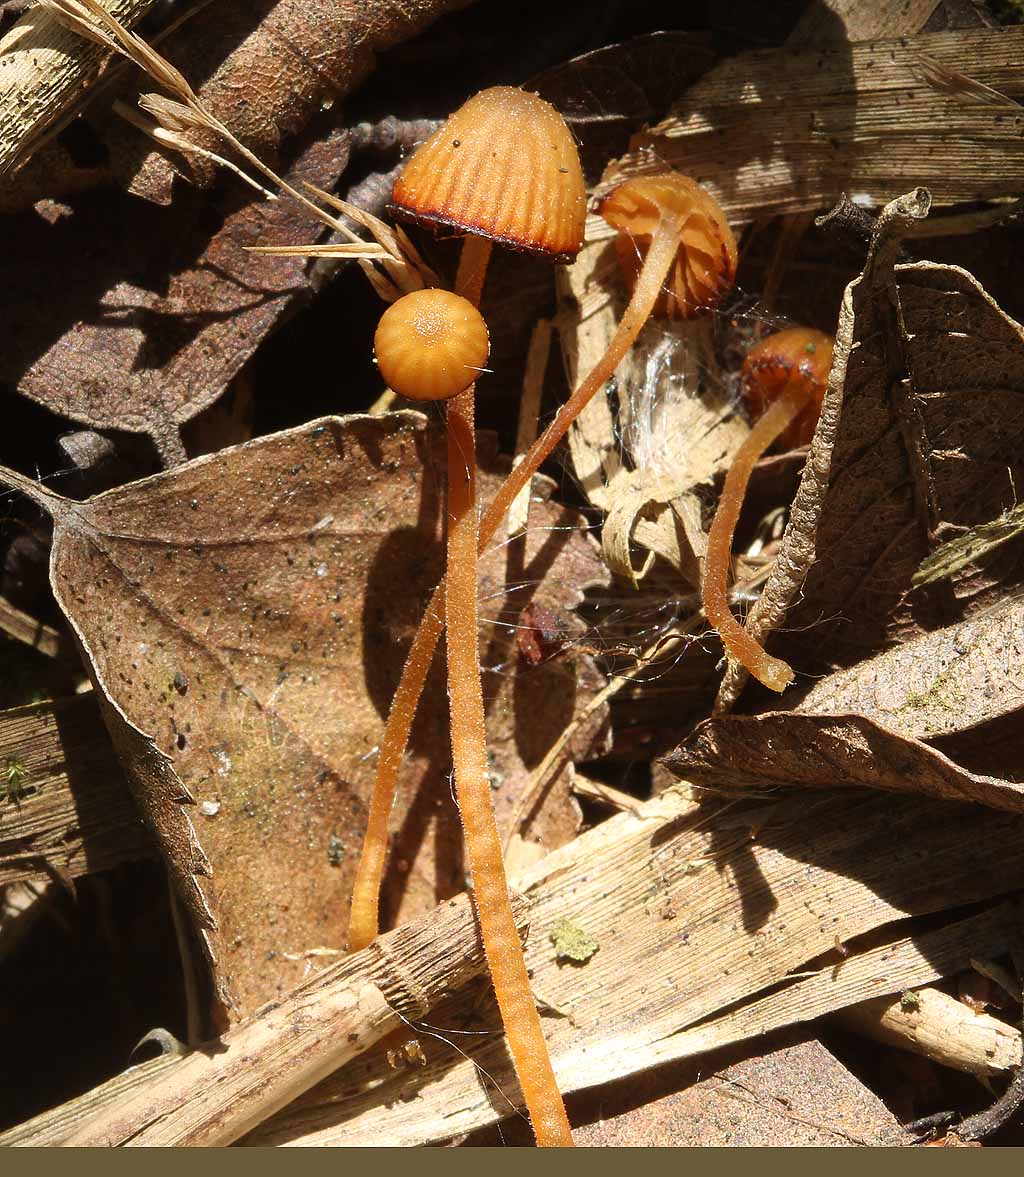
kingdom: Fungi
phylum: Basidiomycota
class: Agaricomycetes
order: Agaricales
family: Hymenogastraceae
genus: Galerina
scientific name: Galerina
